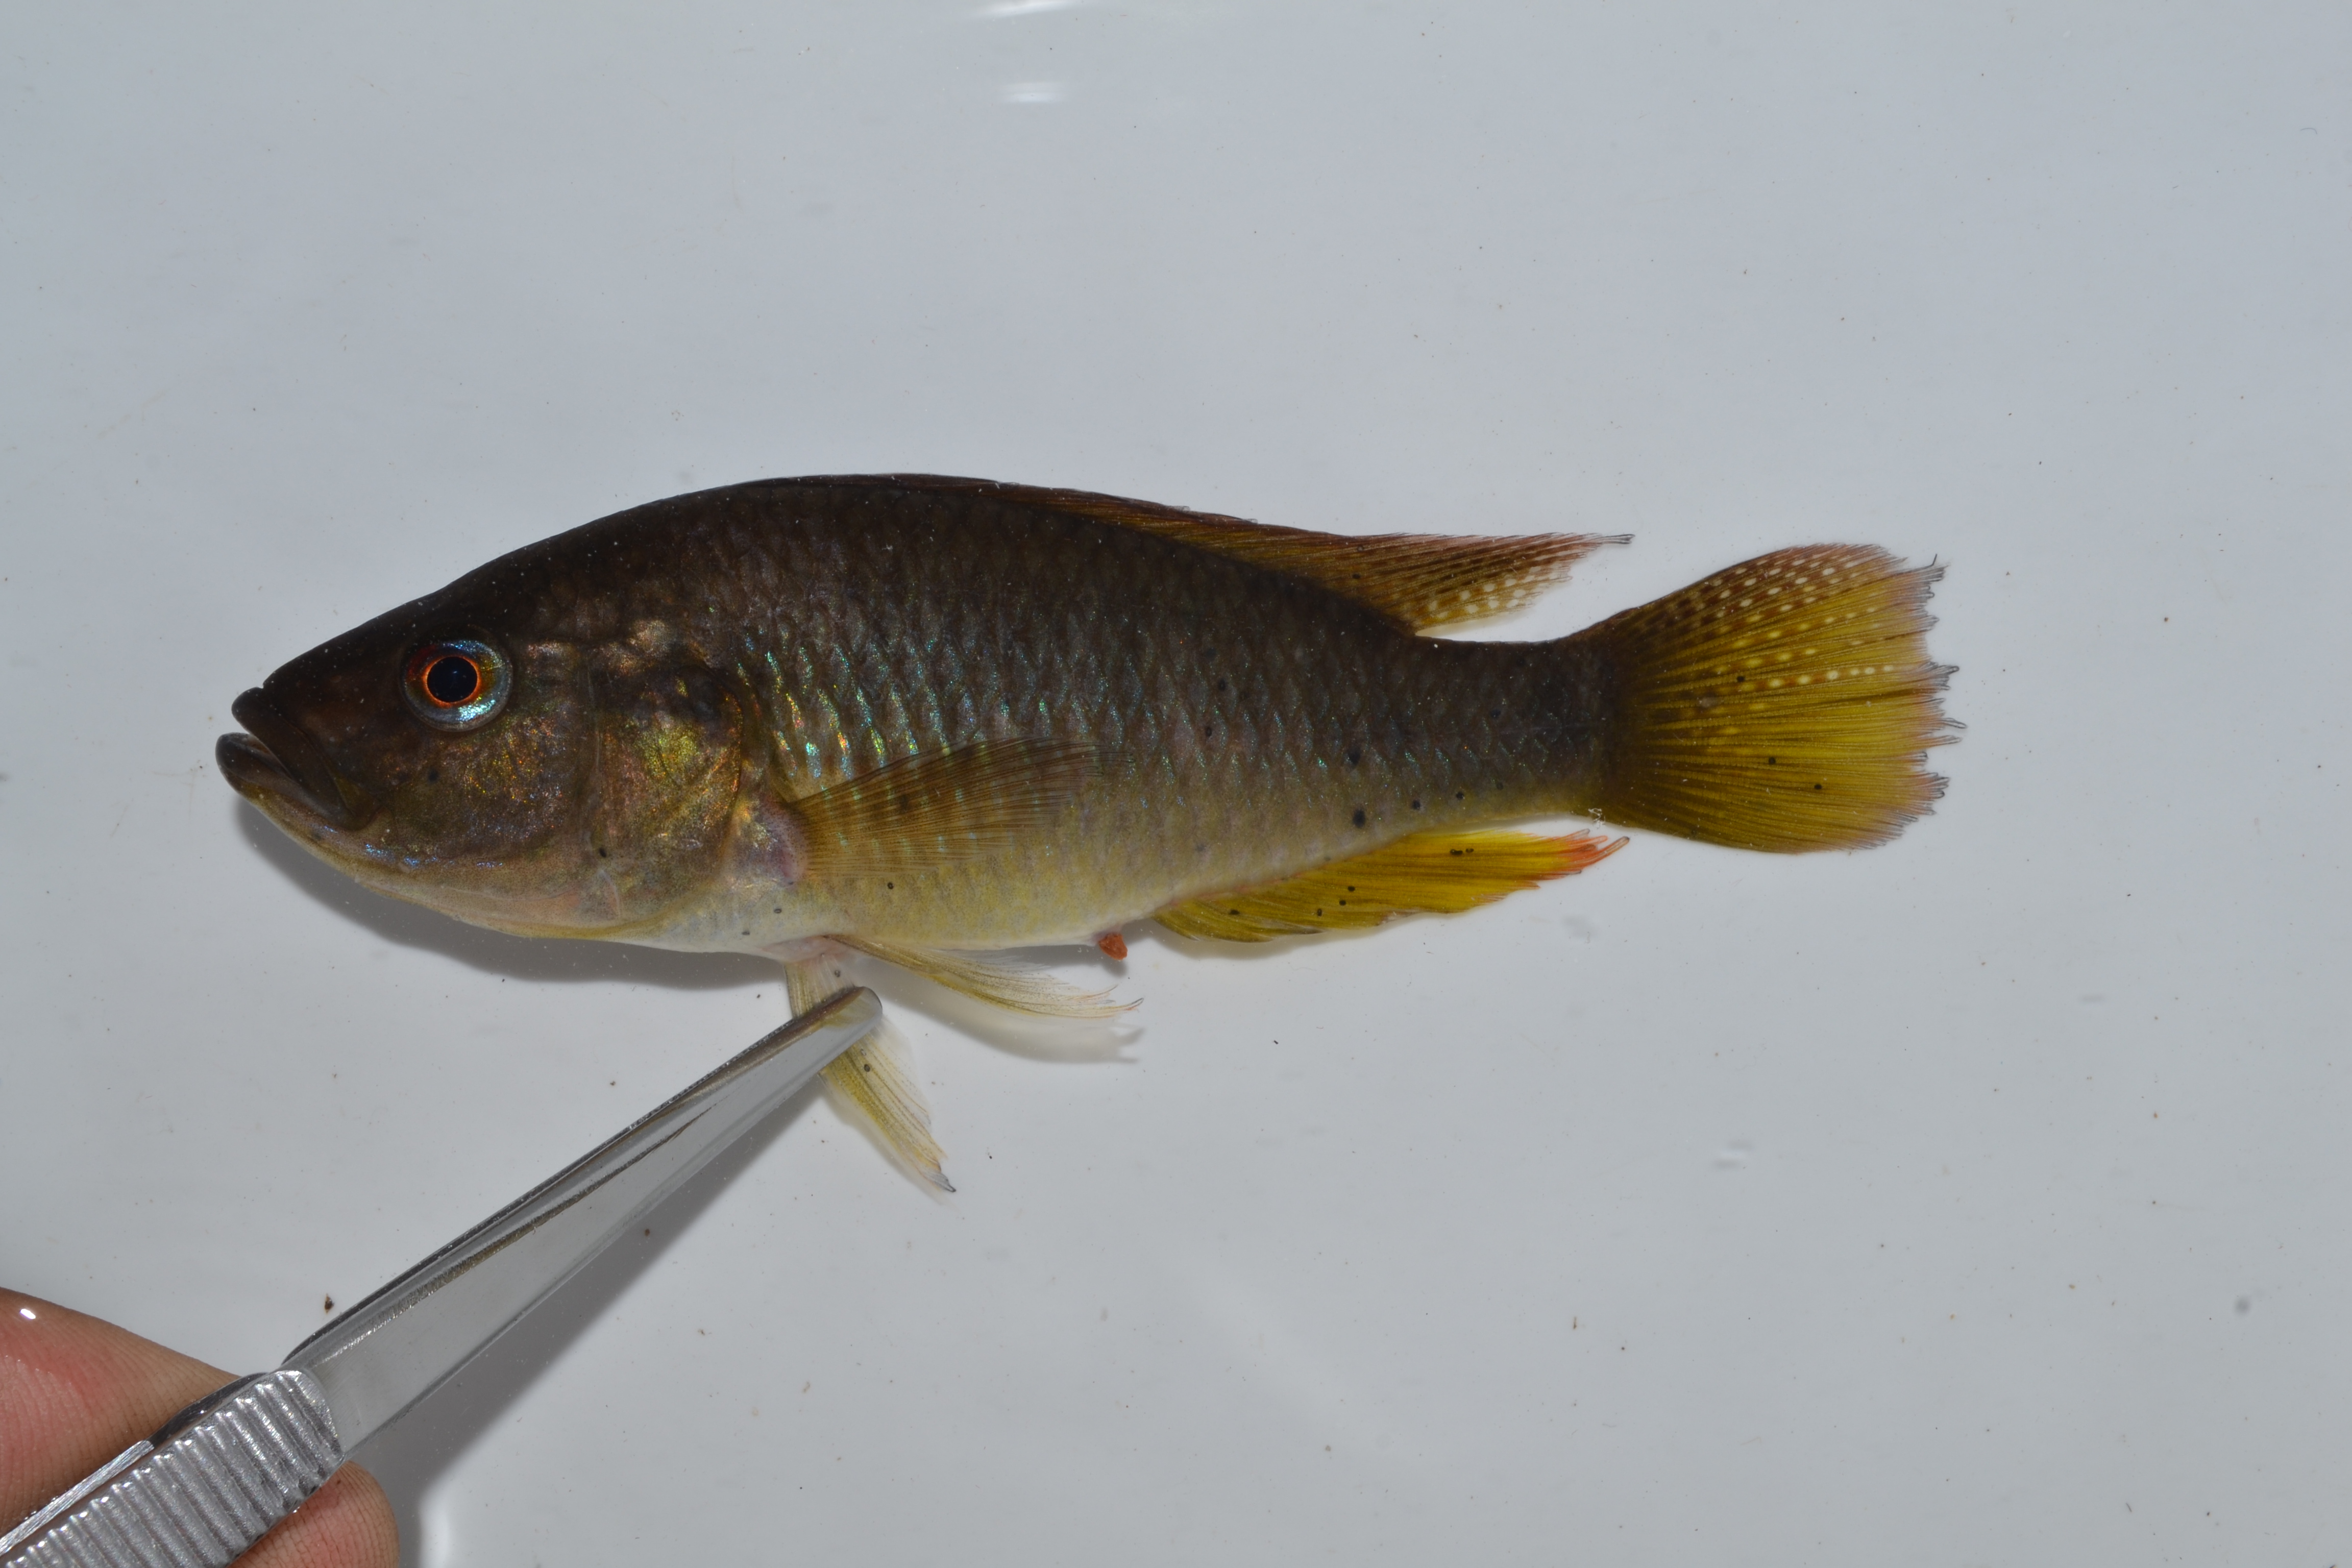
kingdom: Animalia
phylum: Chordata
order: Perciformes
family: Cichlidae
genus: Pseudocrenilabrus
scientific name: Pseudocrenilabrus philander
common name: Southern mouthbrooder
